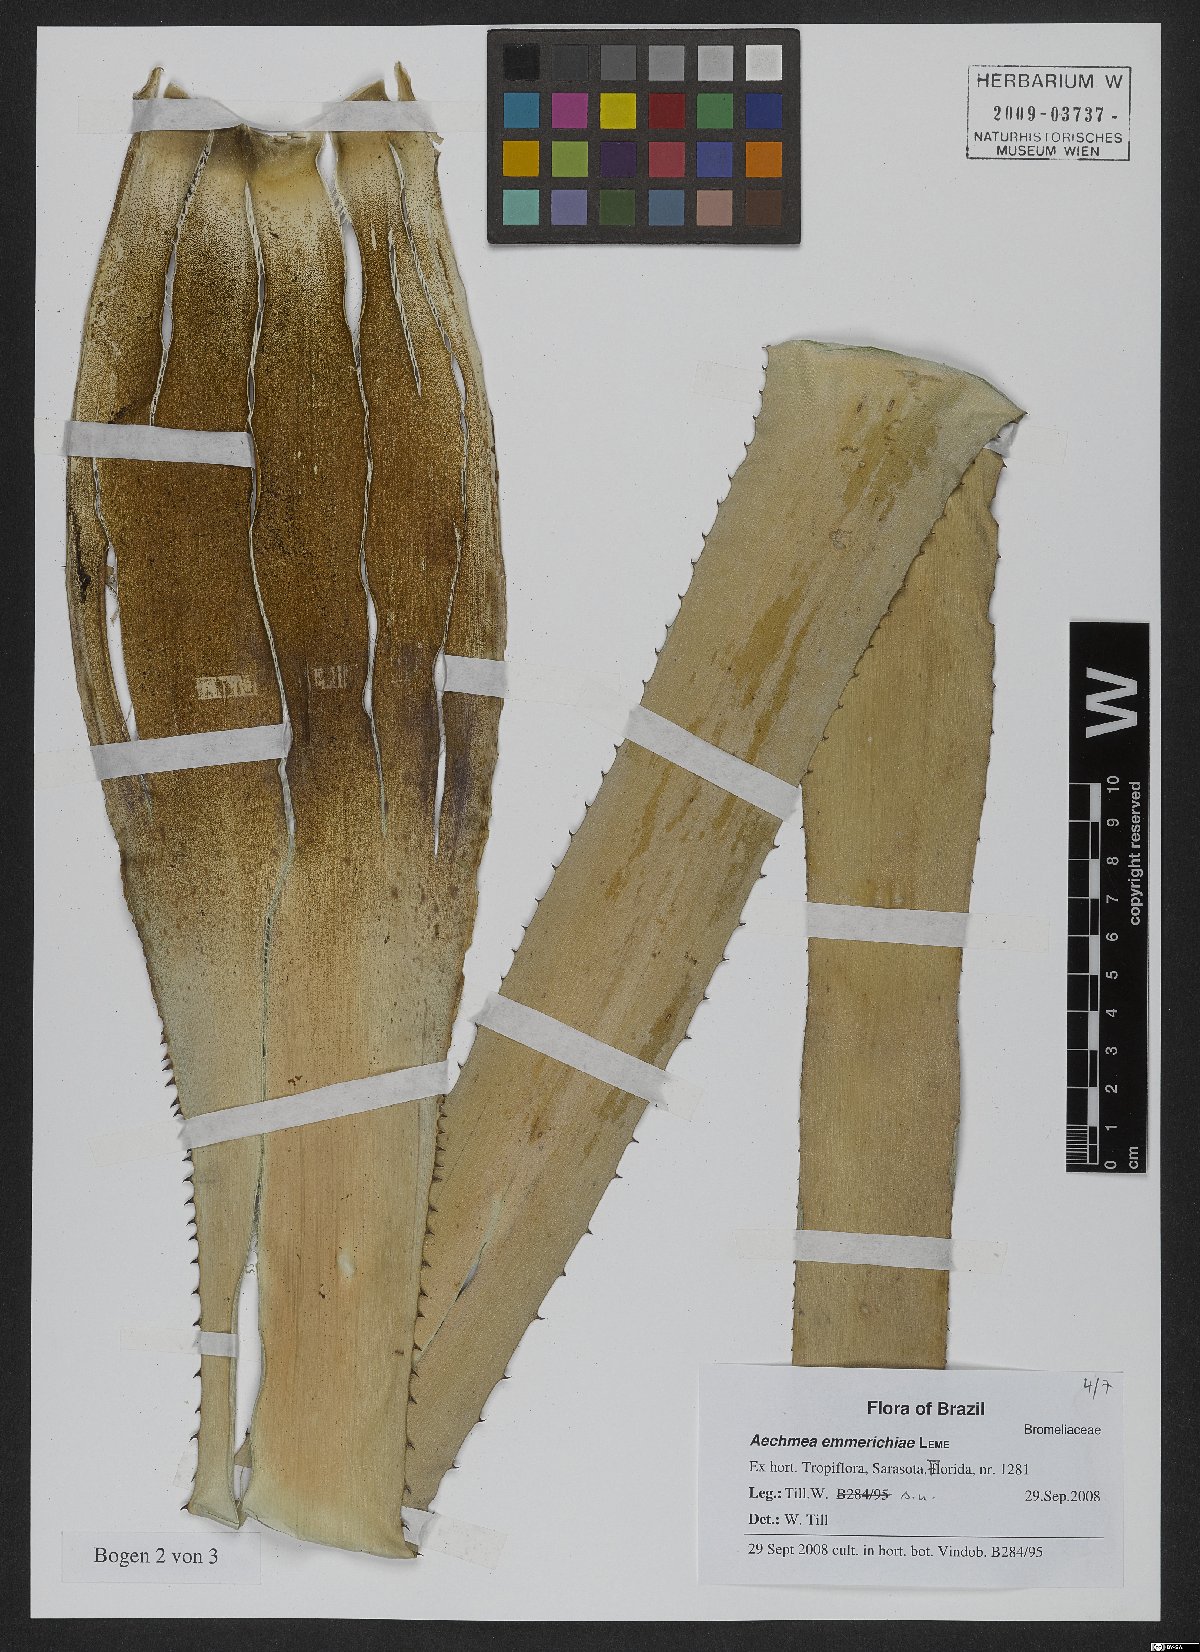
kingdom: Plantae
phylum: Tracheophyta
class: Liliopsida
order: Poales
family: Bromeliaceae
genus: Aechmea
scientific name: Aechmea emmerichiae
